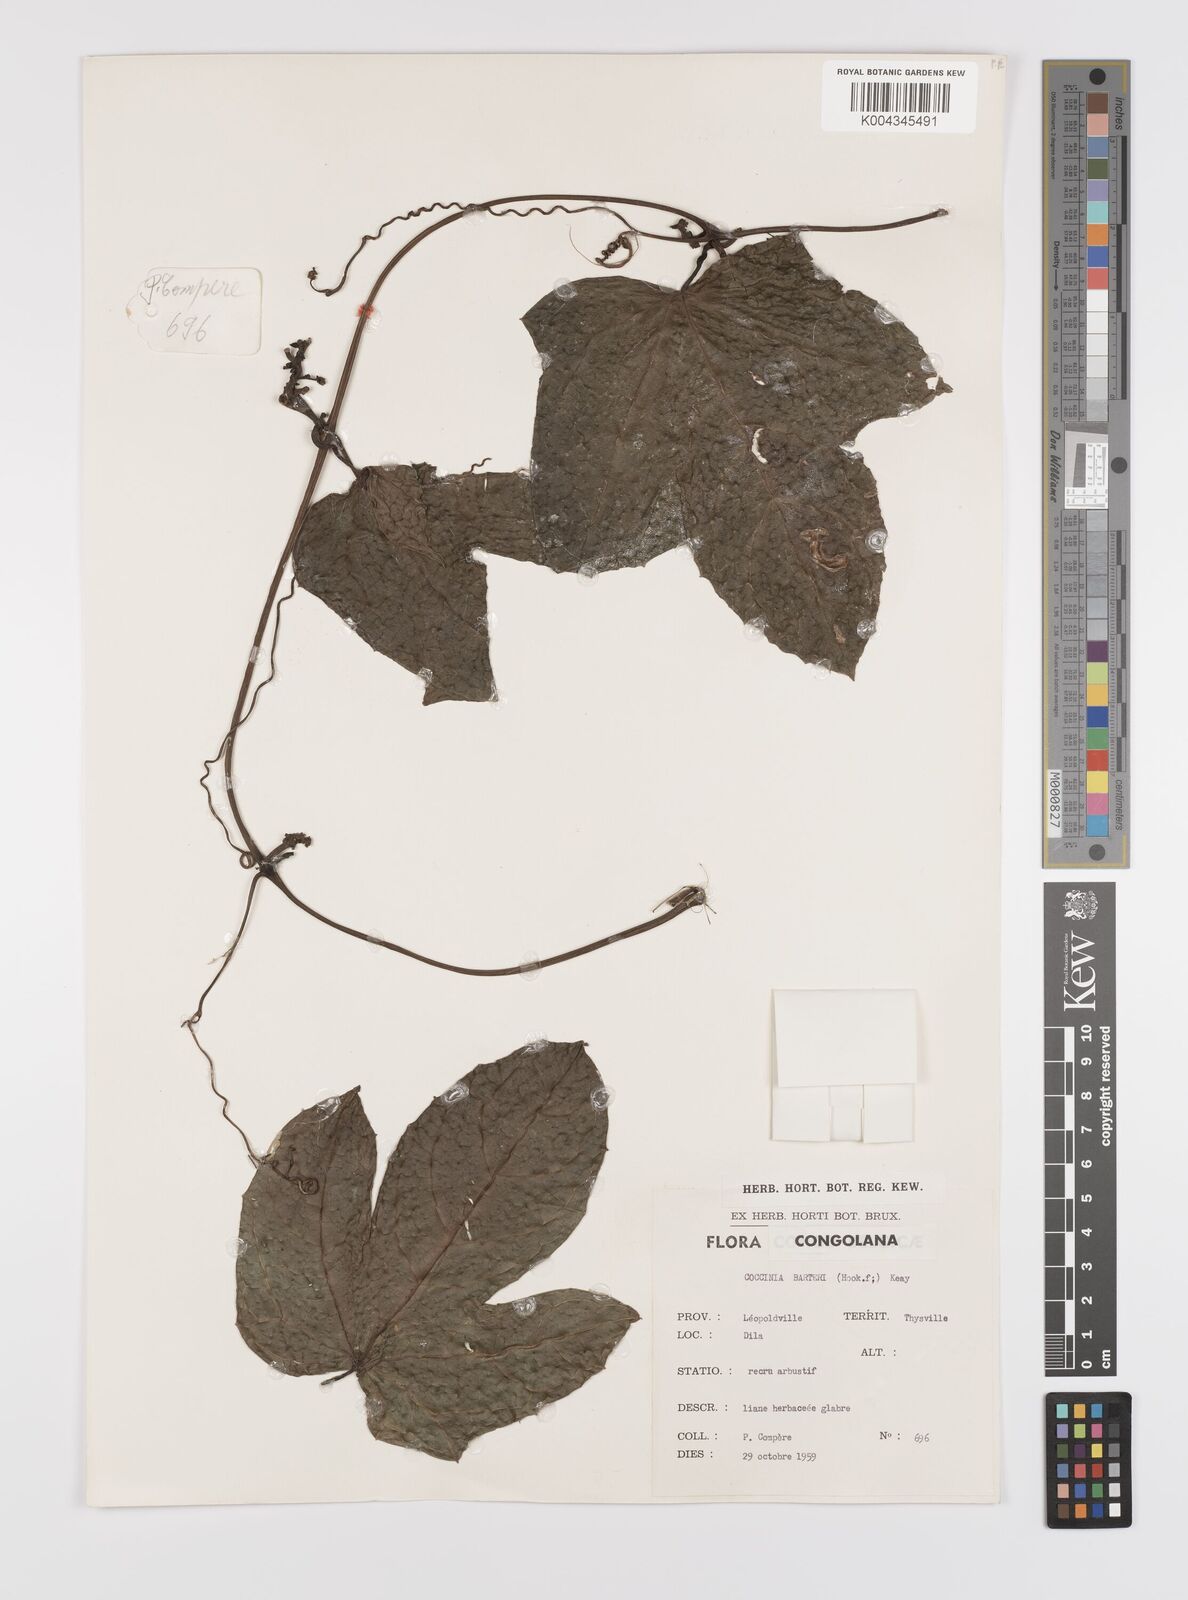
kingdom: Plantae
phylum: Tracheophyta
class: Magnoliopsida
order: Cucurbitales
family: Cucurbitaceae
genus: Coccinia
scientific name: Coccinia barteri
